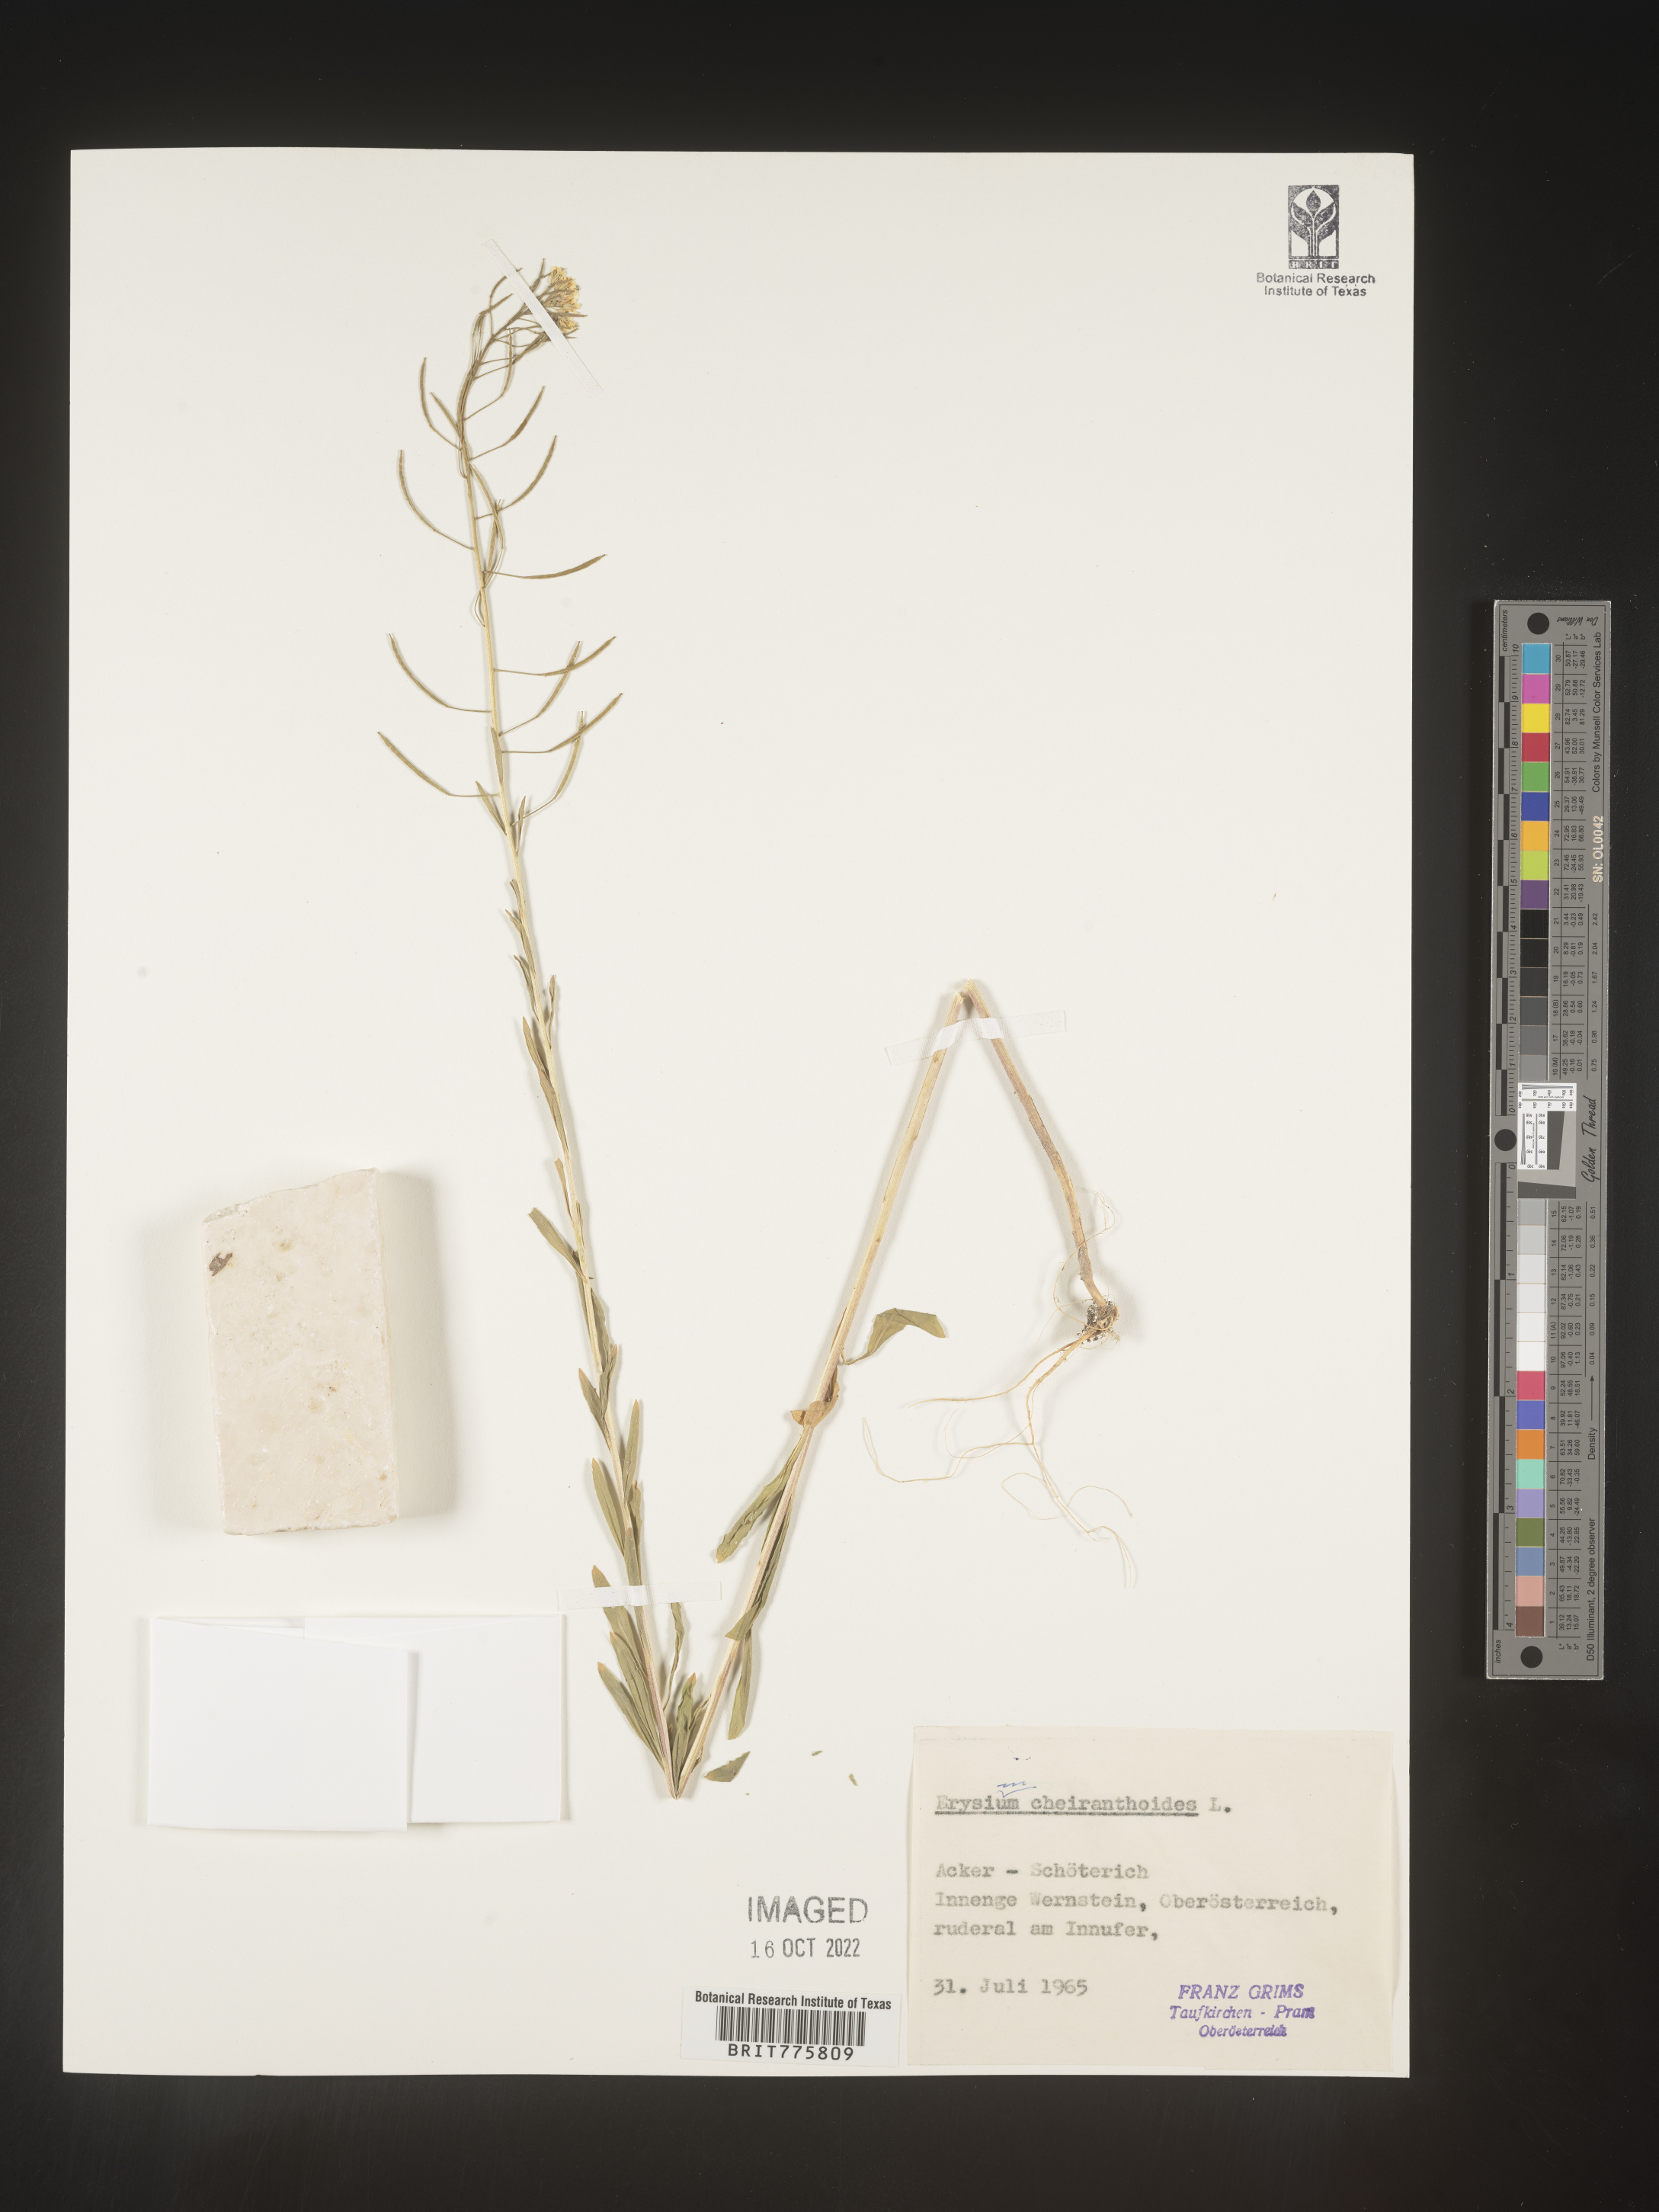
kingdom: Plantae
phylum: Tracheophyta
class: Magnoliopsida
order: Brassicales
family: Brassicaceae
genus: Erysimum
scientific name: Erysimum
